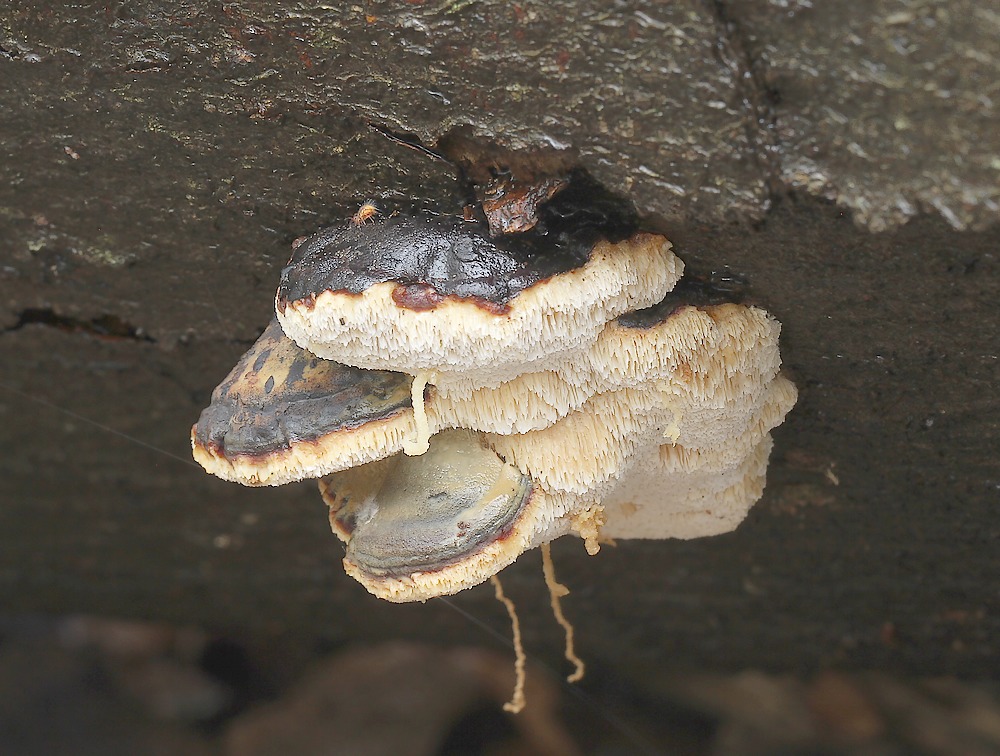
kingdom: Fungi
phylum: Basidiomycota
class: Agaricomycetes
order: Polyporales
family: Ischnodermataceae
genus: Ischnoderma
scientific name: Ischnoderma resinosum
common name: løv-tjæreporesvamp
